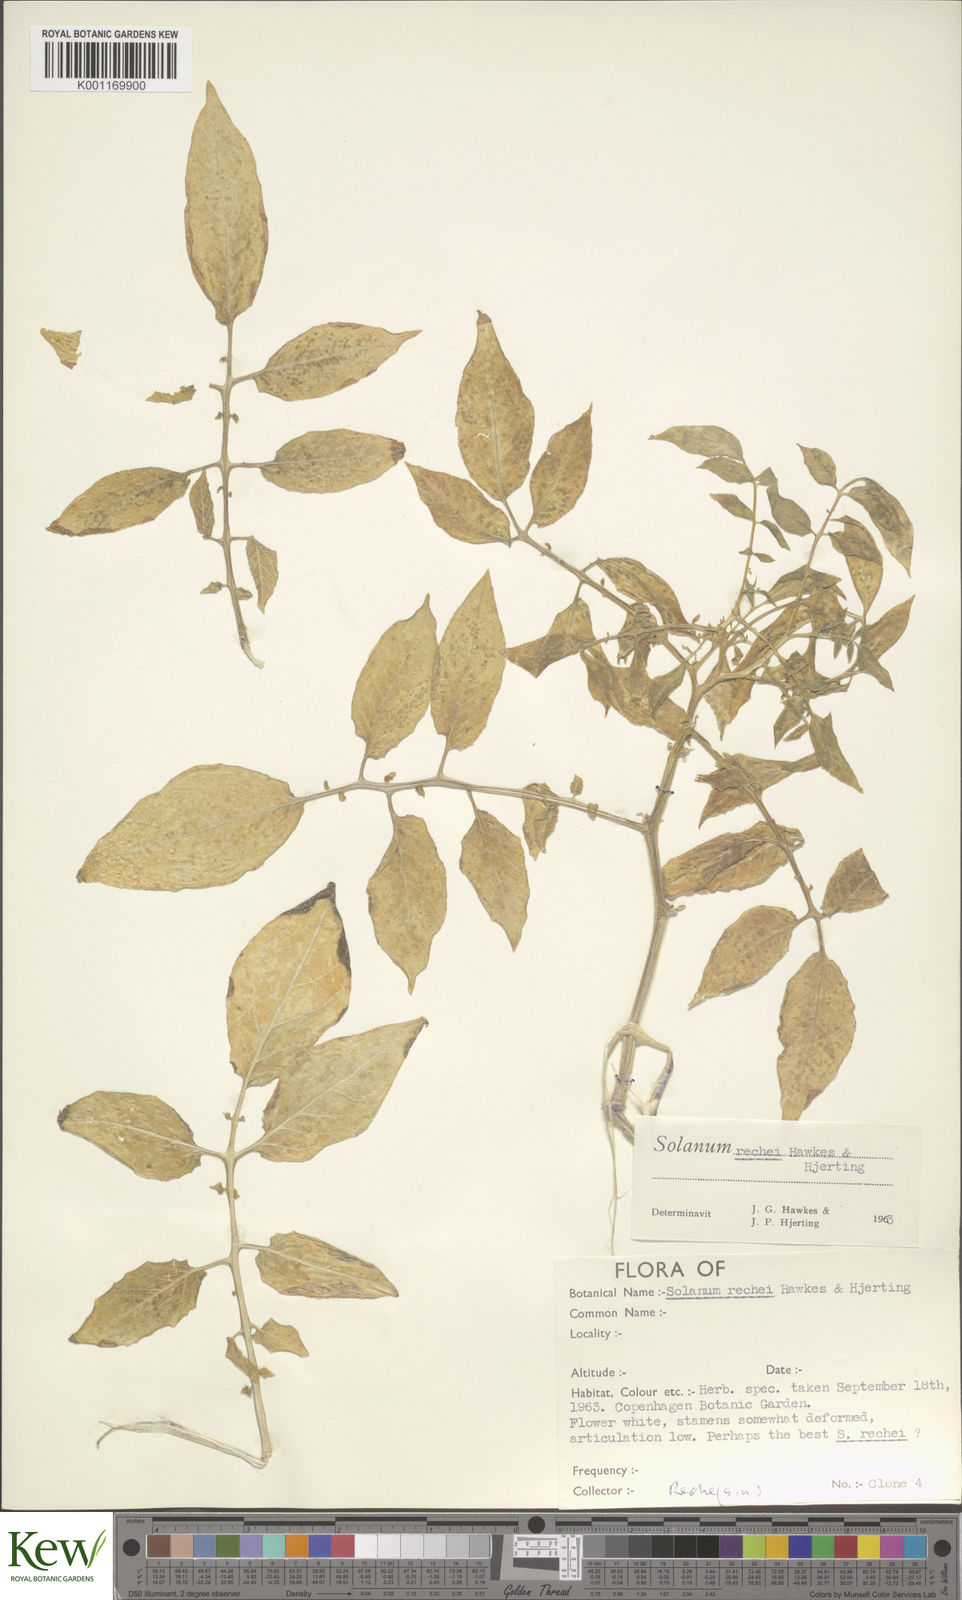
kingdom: Plantae
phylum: Tracheophyta
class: Magnoliopsida
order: Solanales
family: Solanaceae
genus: Solanum
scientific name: Solanum rechei
